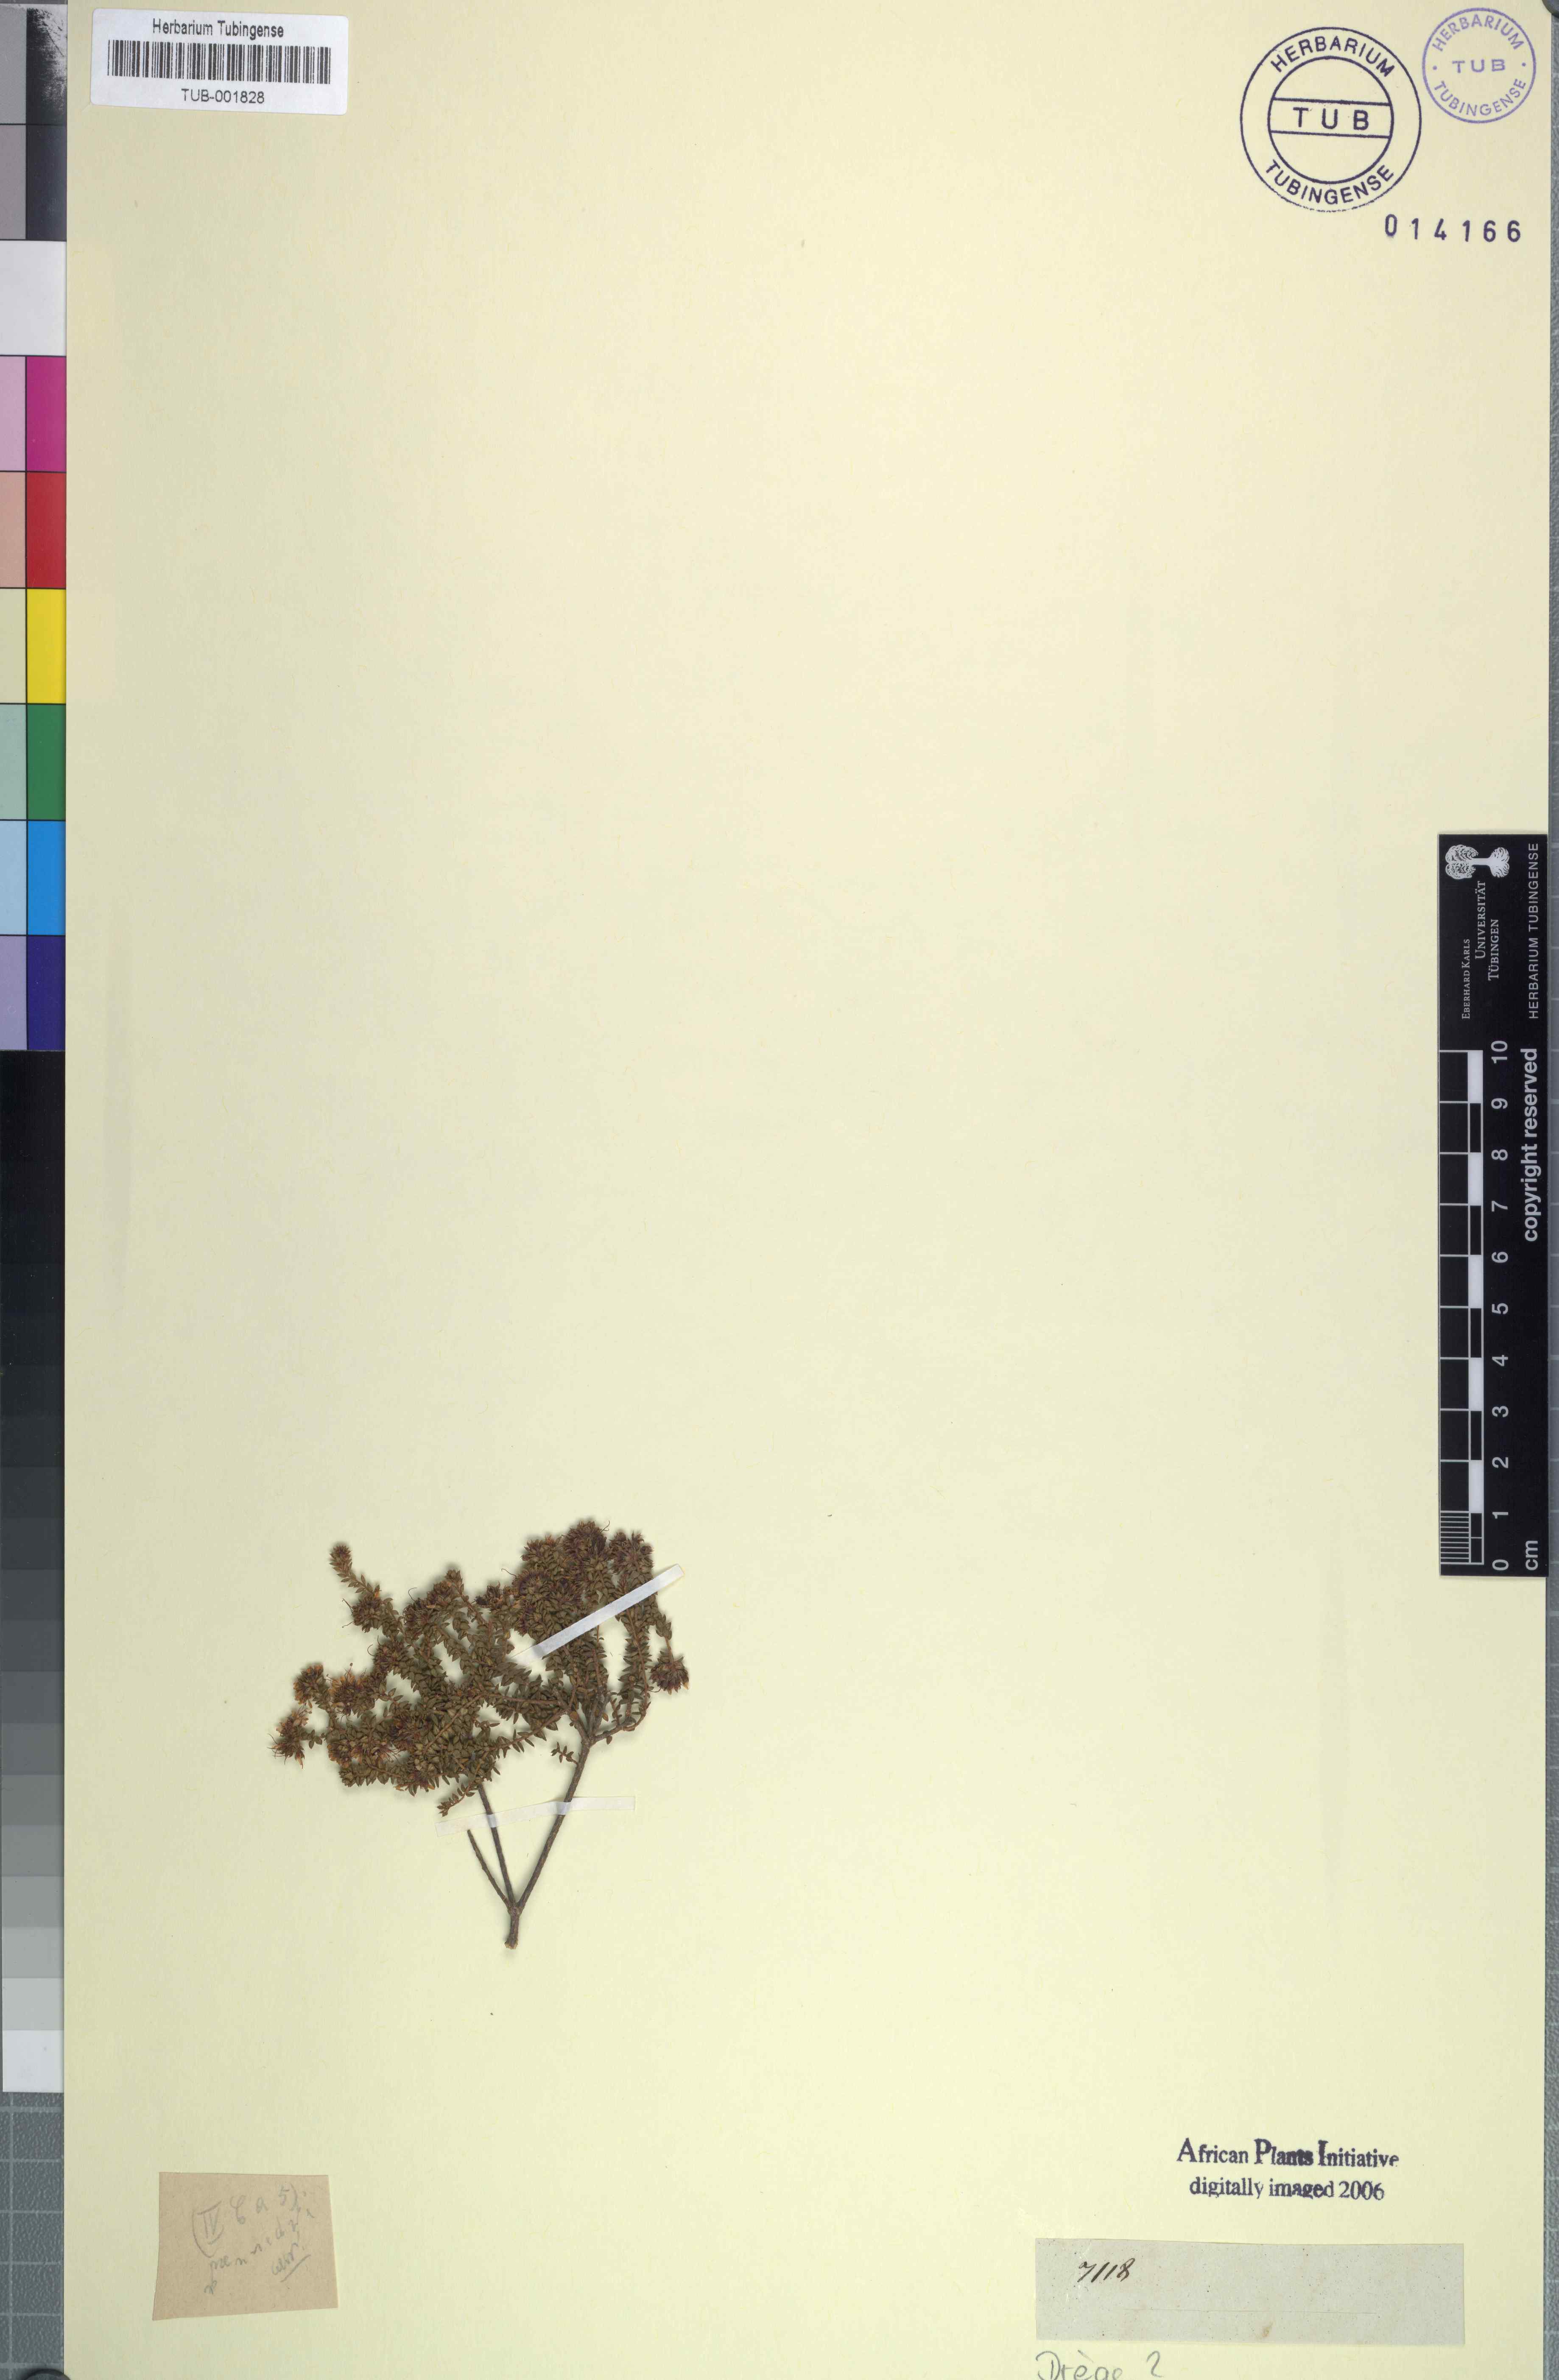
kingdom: Plantae
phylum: Tracheophyta
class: Magnoliopsida
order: Sapindales
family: Rutaceae
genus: Agathosma
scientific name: Agathosma
